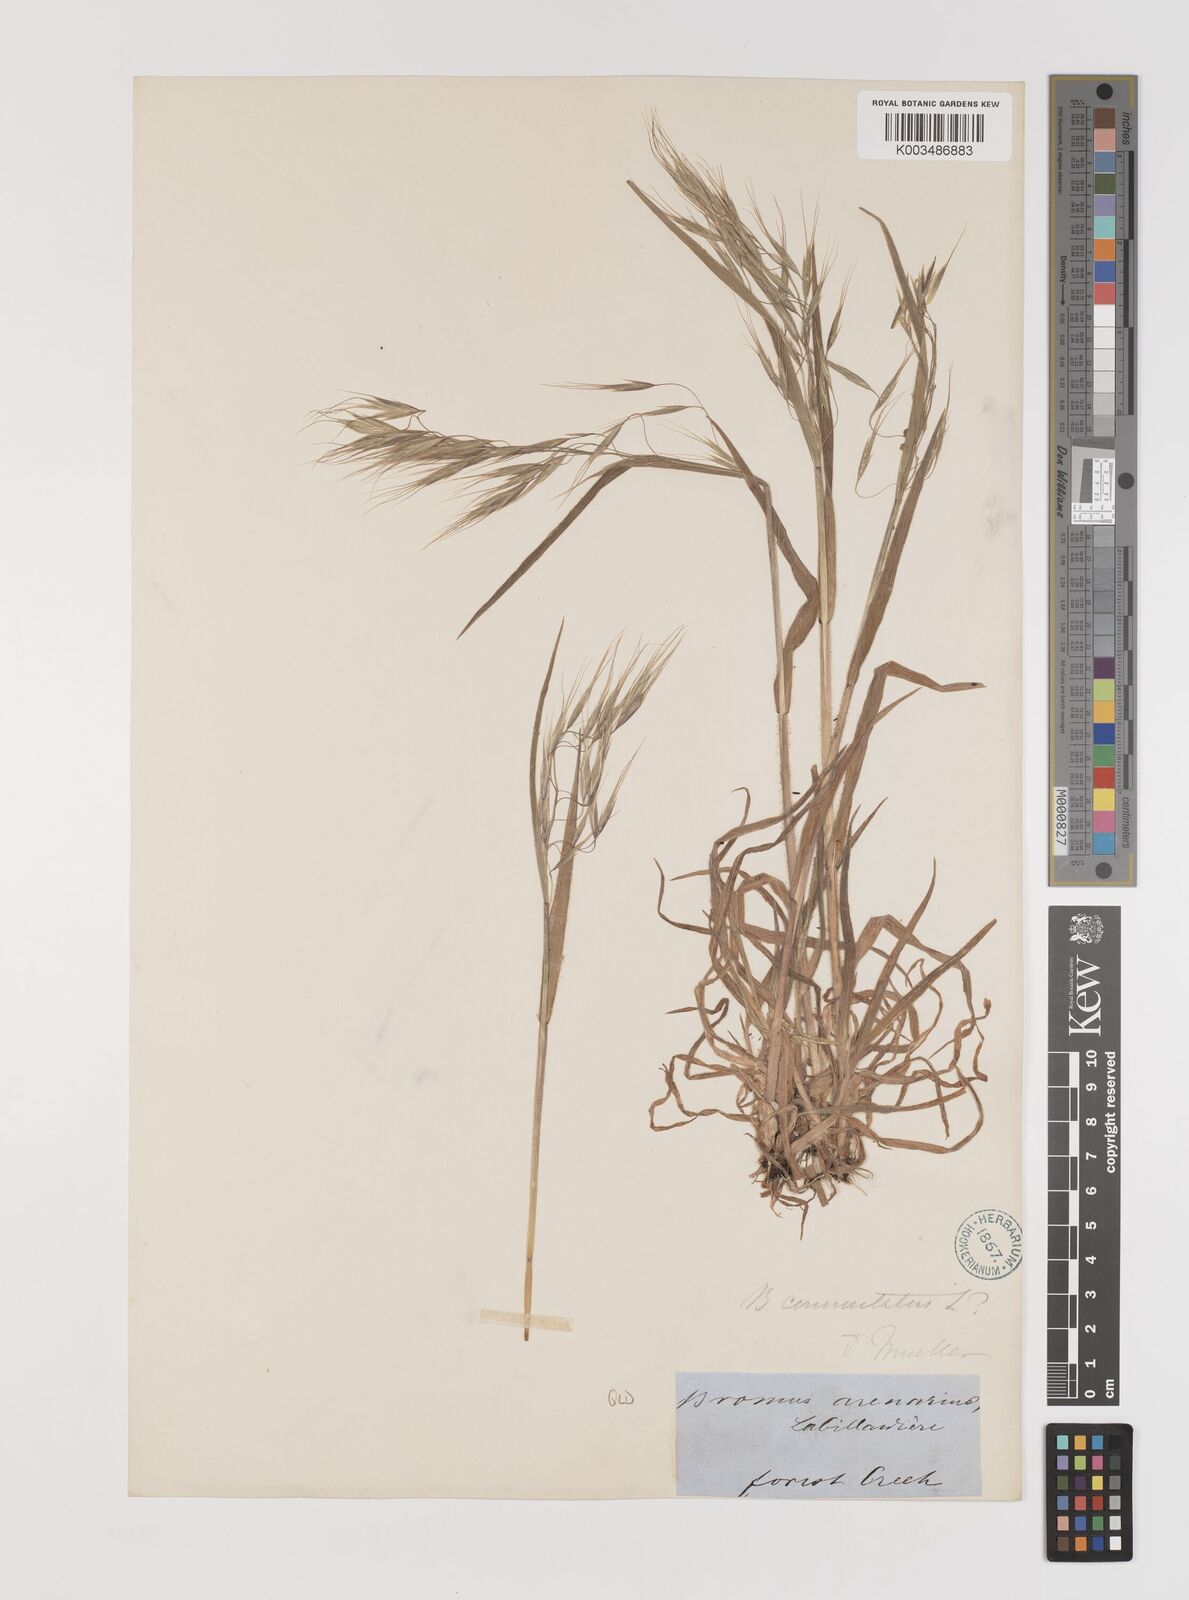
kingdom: Plantae
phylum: Tracheophyta
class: Liliopsida
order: Poales
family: Poaceae
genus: Bromus
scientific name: Bromus arenarius
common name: Australian brome
